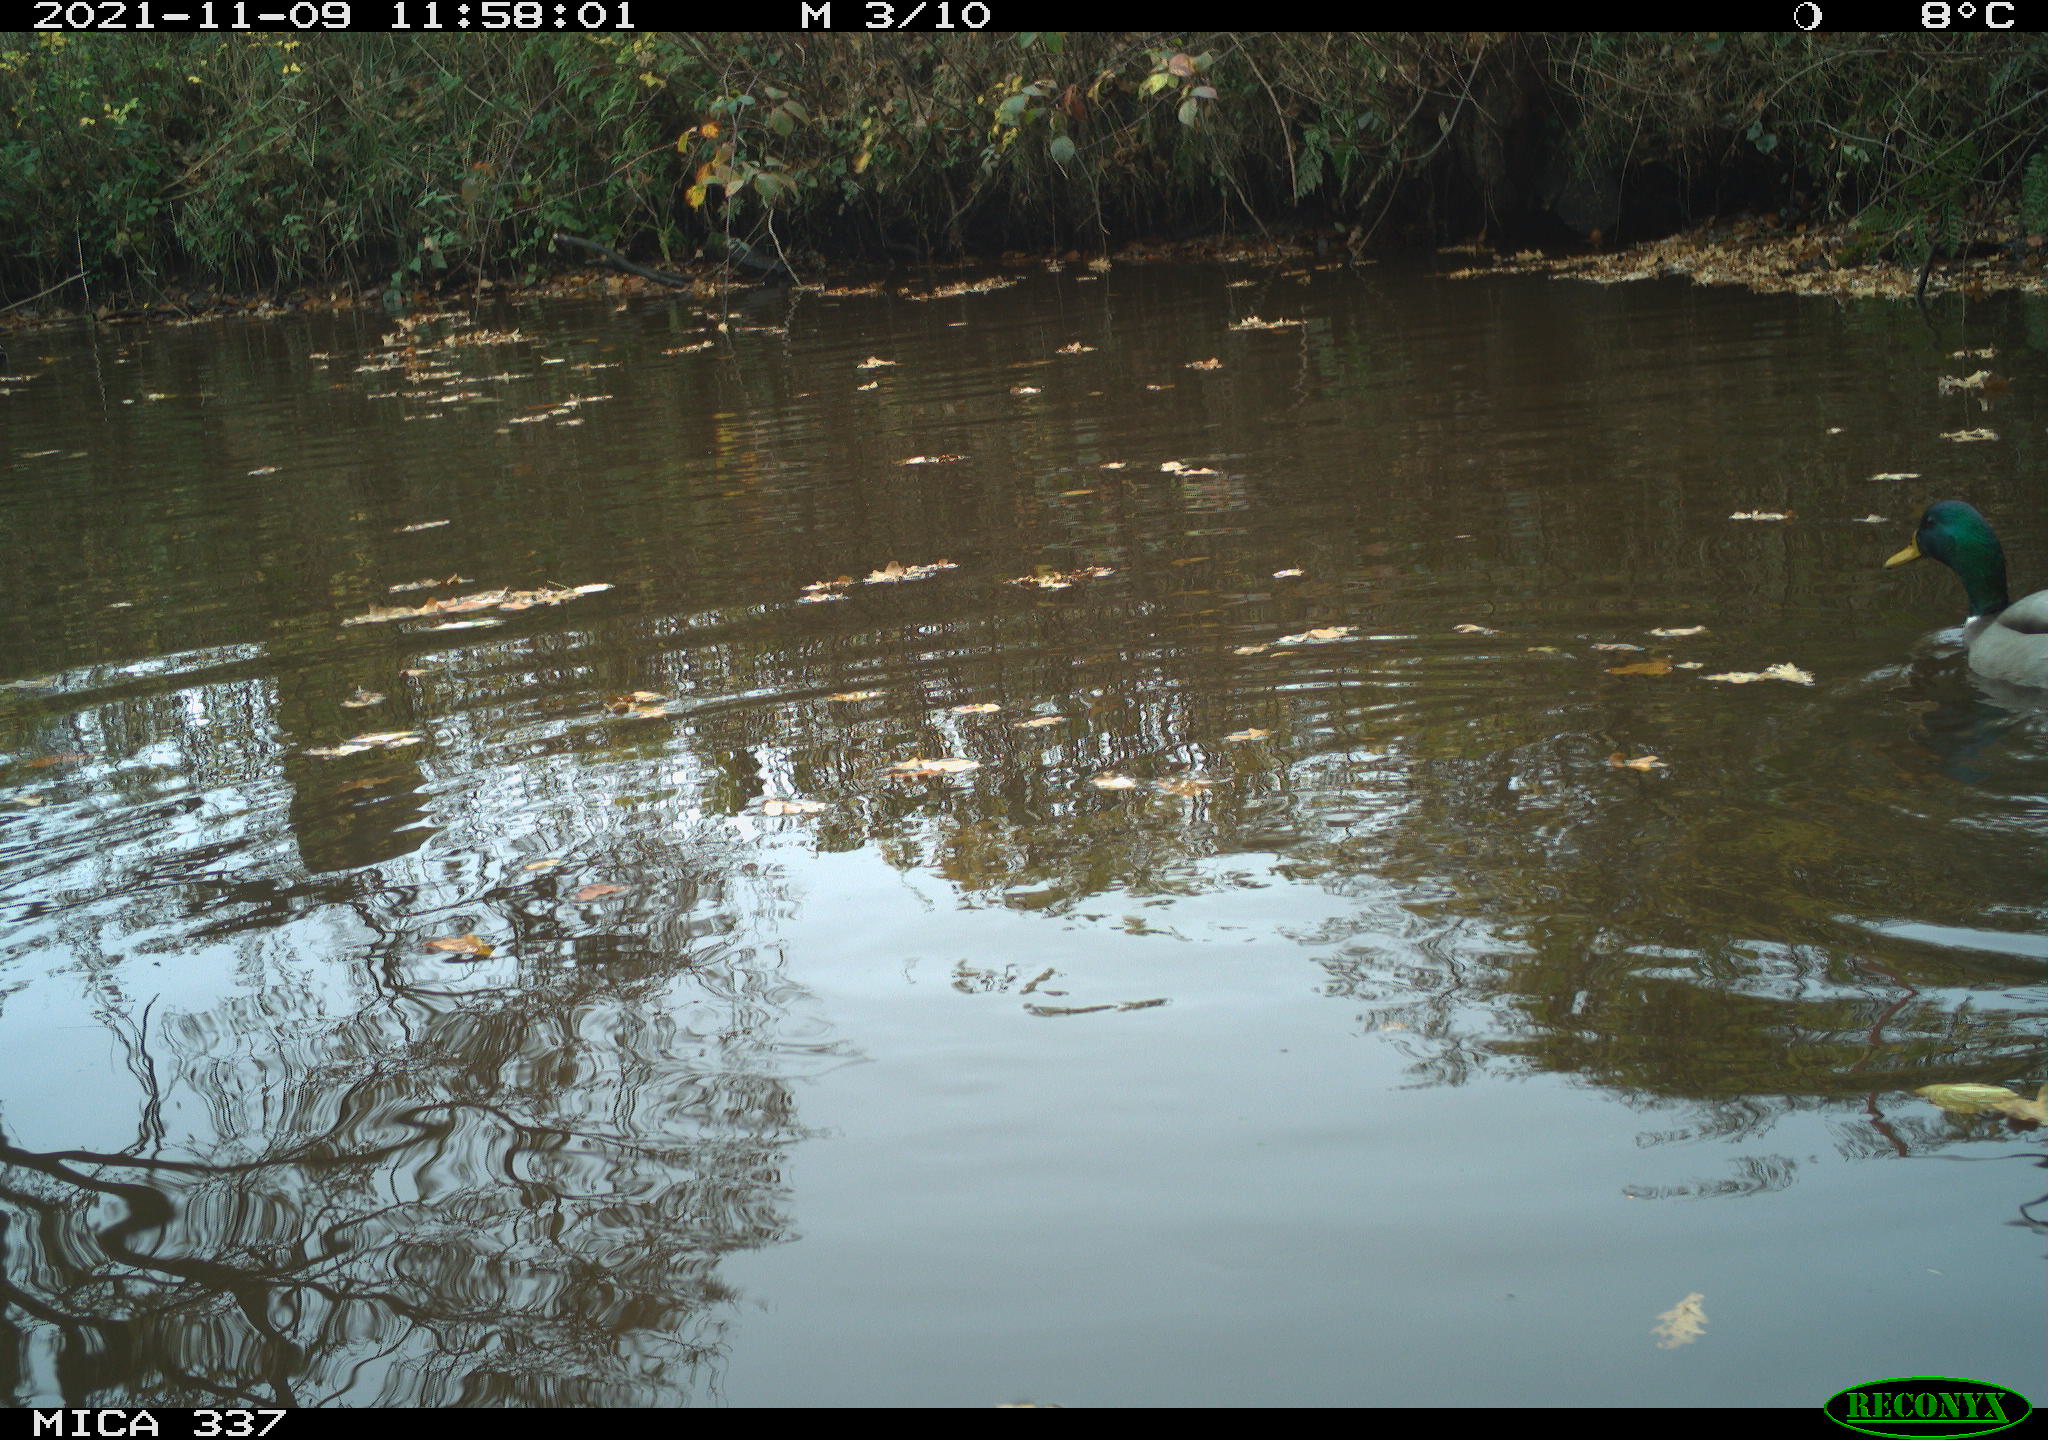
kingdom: Animalia
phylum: Chordata
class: Aves
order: Anseriformes
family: Anatidae
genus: Anas
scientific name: Anas platyrhynchos
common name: Mallard
